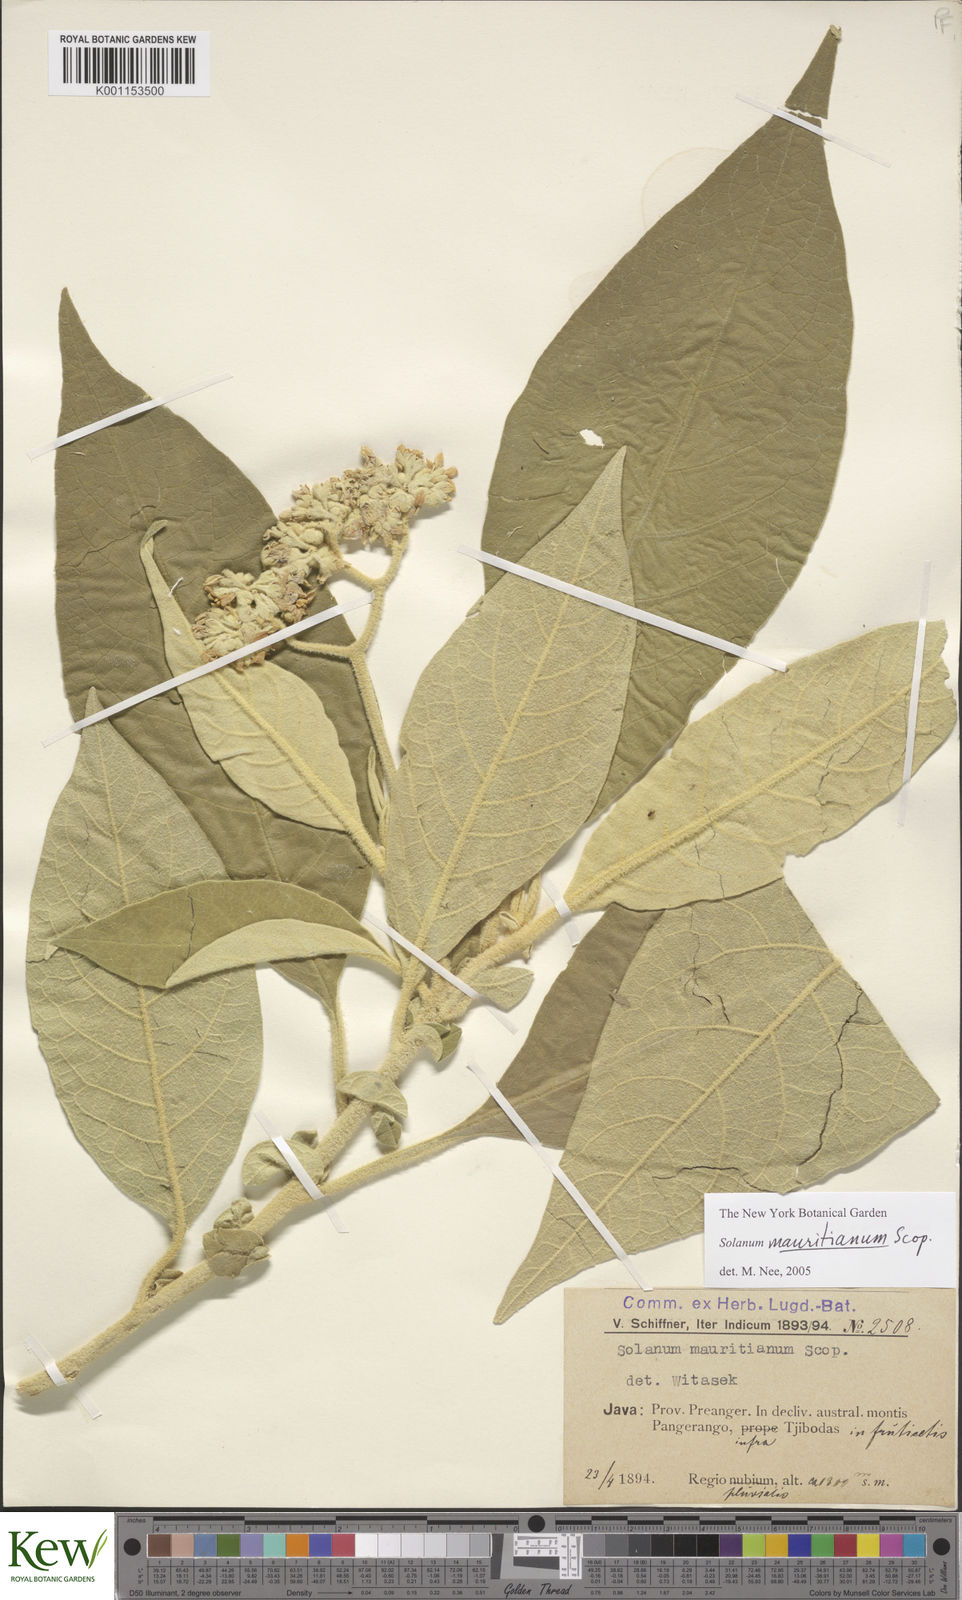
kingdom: Plantae
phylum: Tracheophyta
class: Magnoliopsida
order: Solanales
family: Solanaceae
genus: Solanum
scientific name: Solanum mauritianum
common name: Earleaf nightshade
